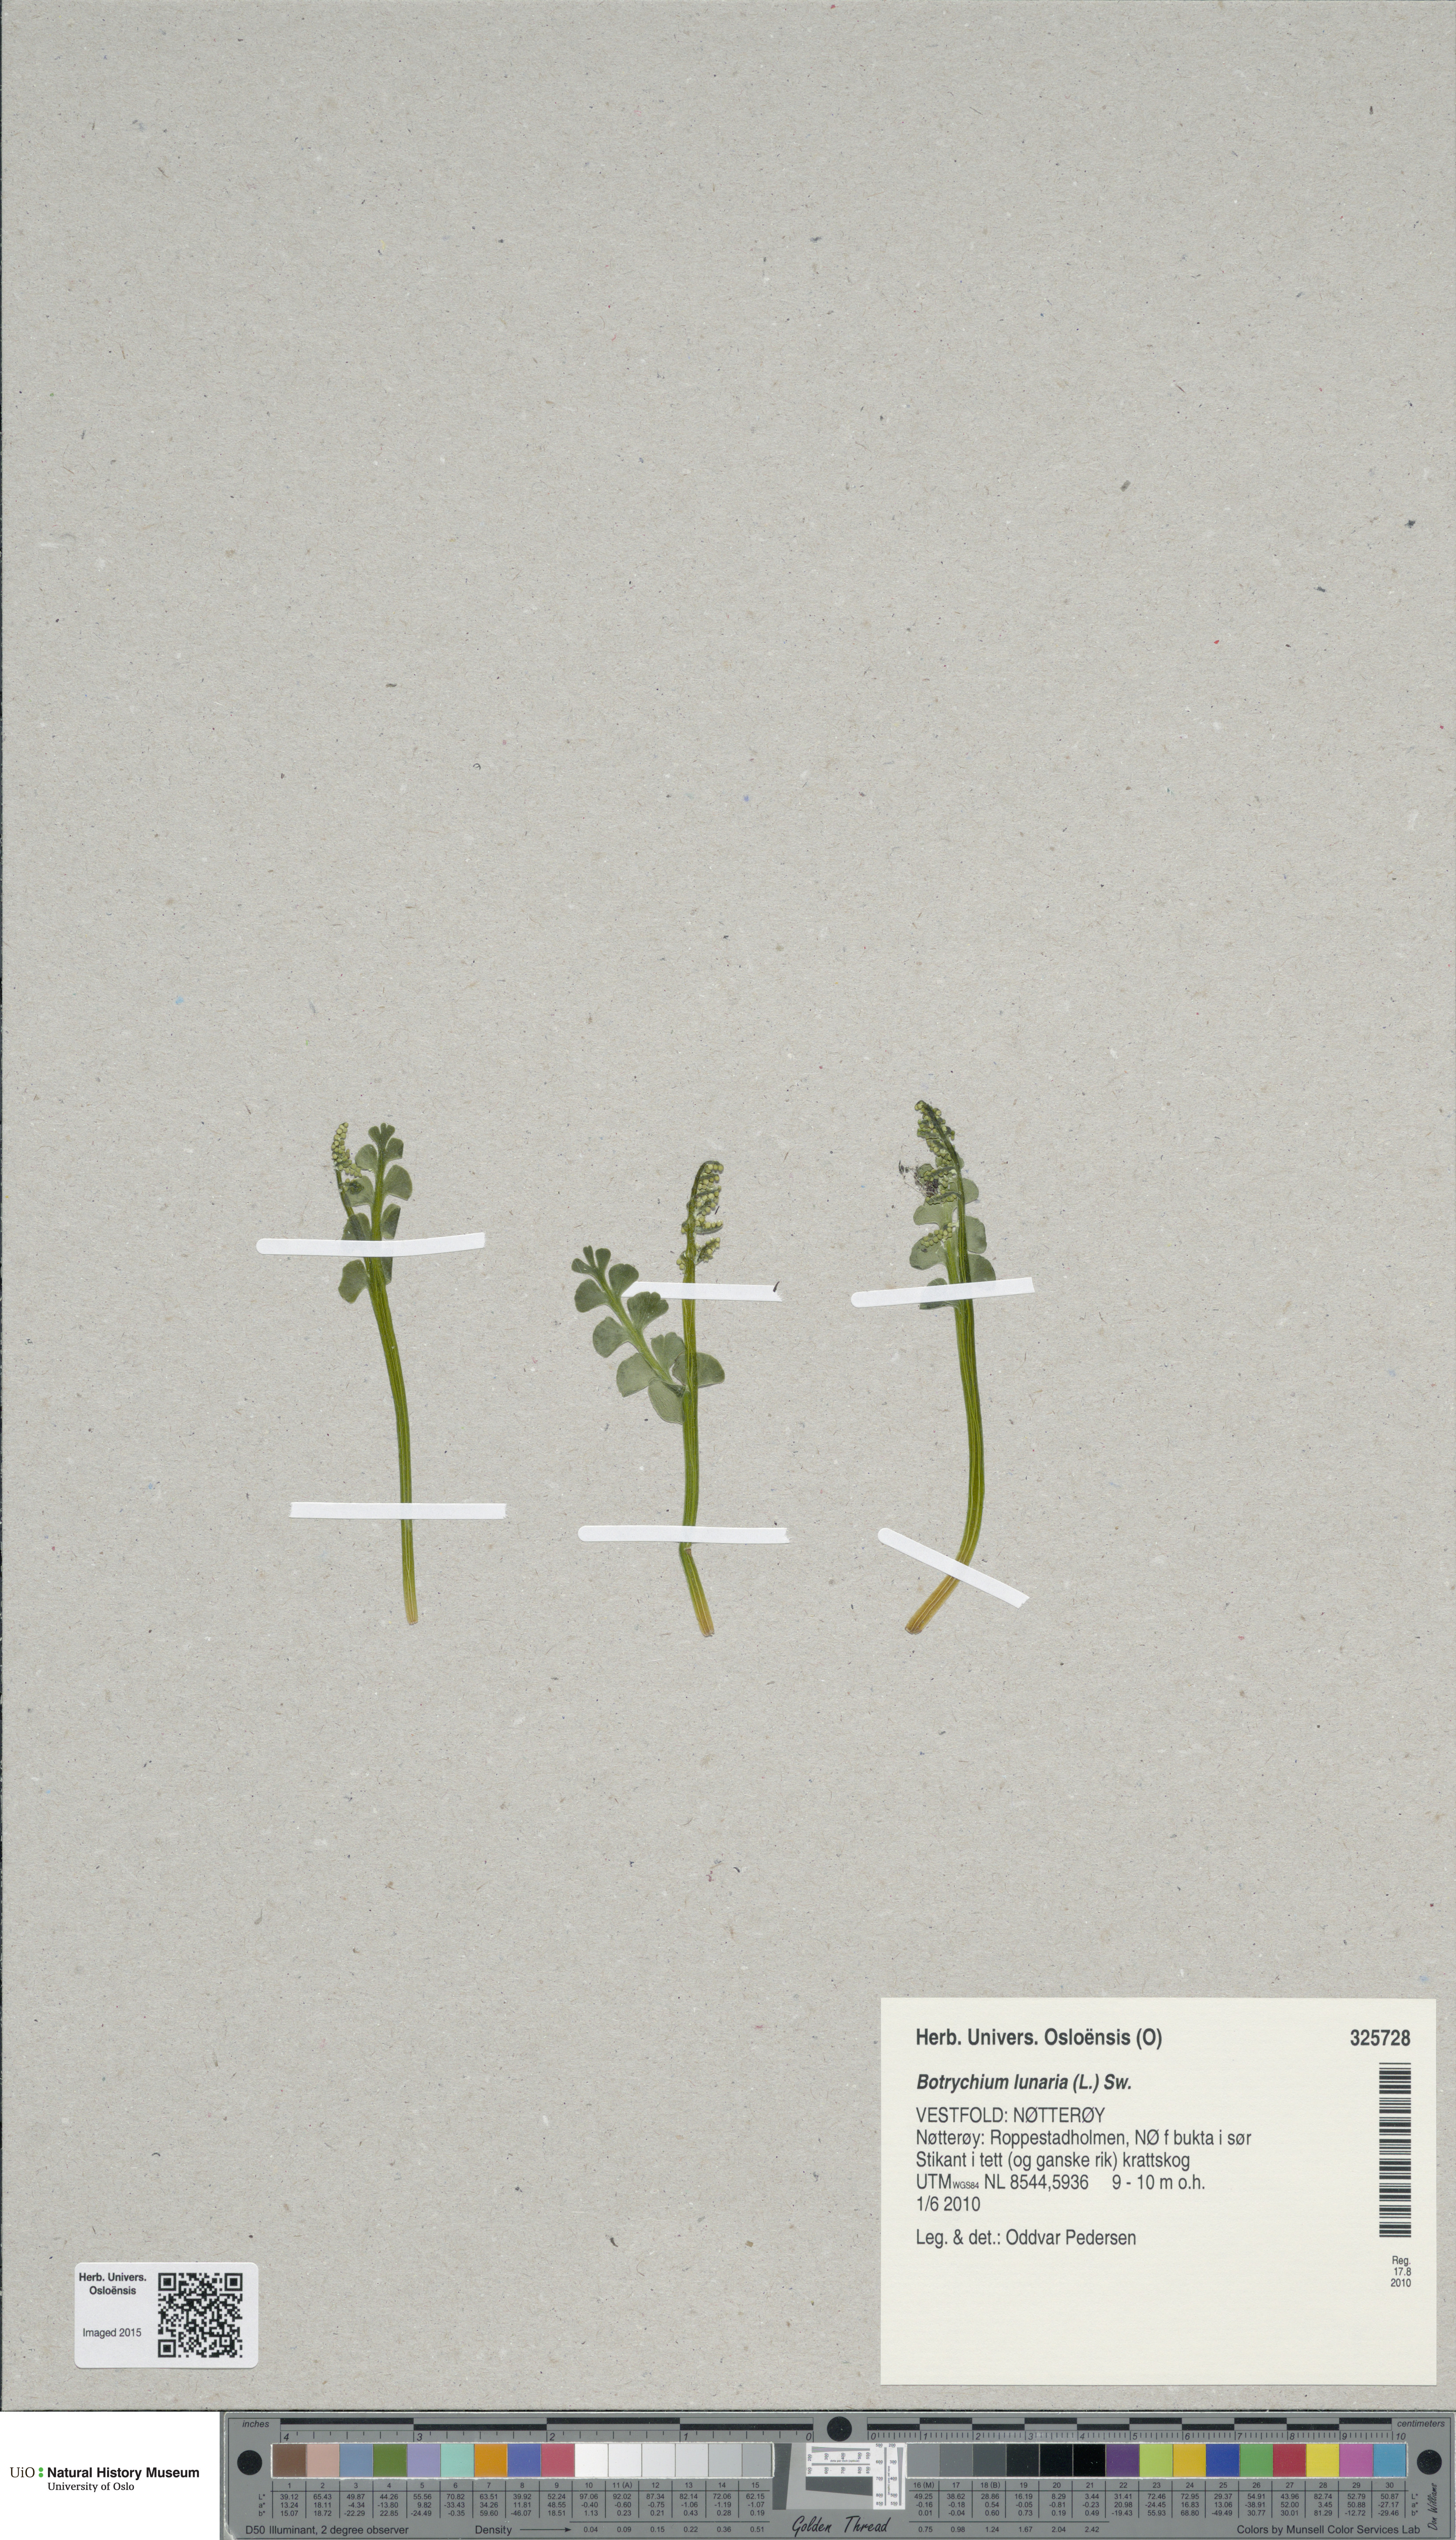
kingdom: Plantae
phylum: Tracheophyta
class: Polypodiopsida
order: Ophioglossales
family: Ophioglossaceae
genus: Botrychium
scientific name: Botrychium lunaria
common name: Moonwort
